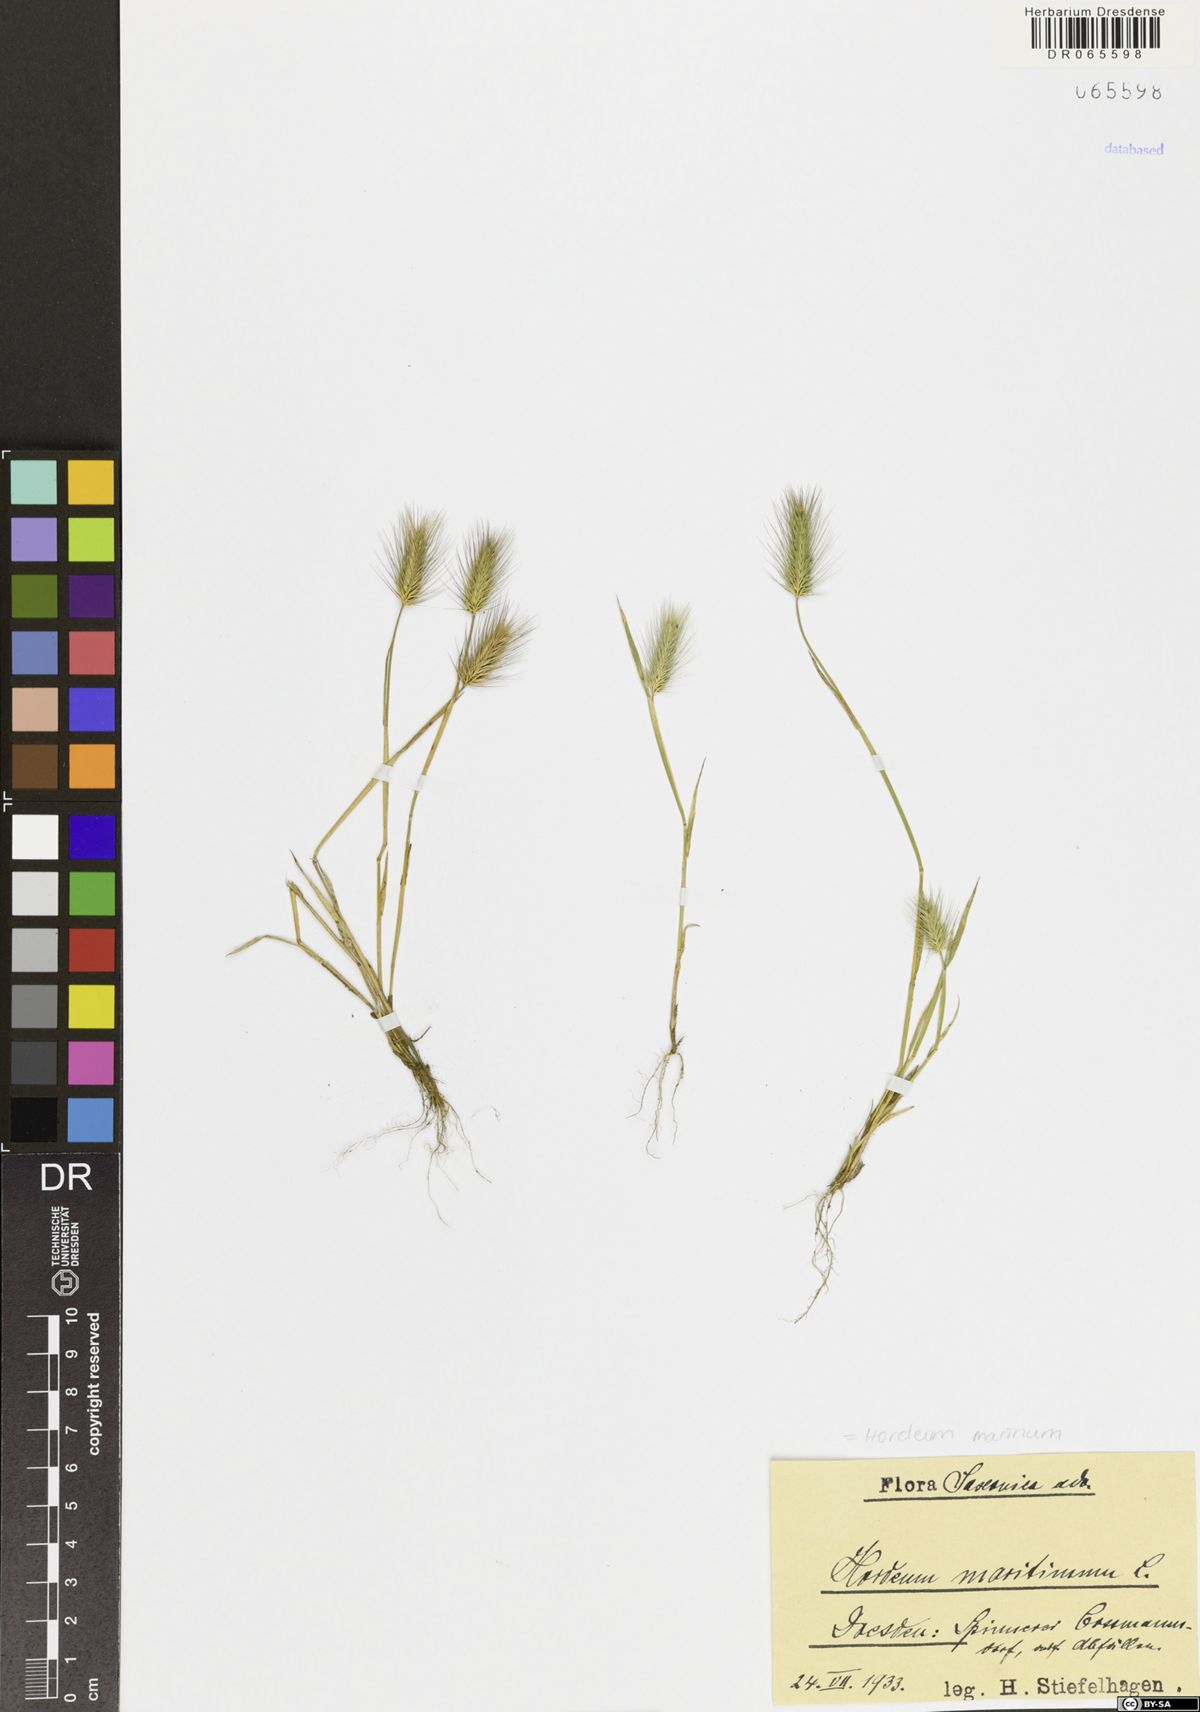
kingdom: Plantae
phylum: Tracheophyta
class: Liliopsida
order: Poales
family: Poaceae
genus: Hordeum
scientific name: Hordeum marinum
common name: Sea barley
